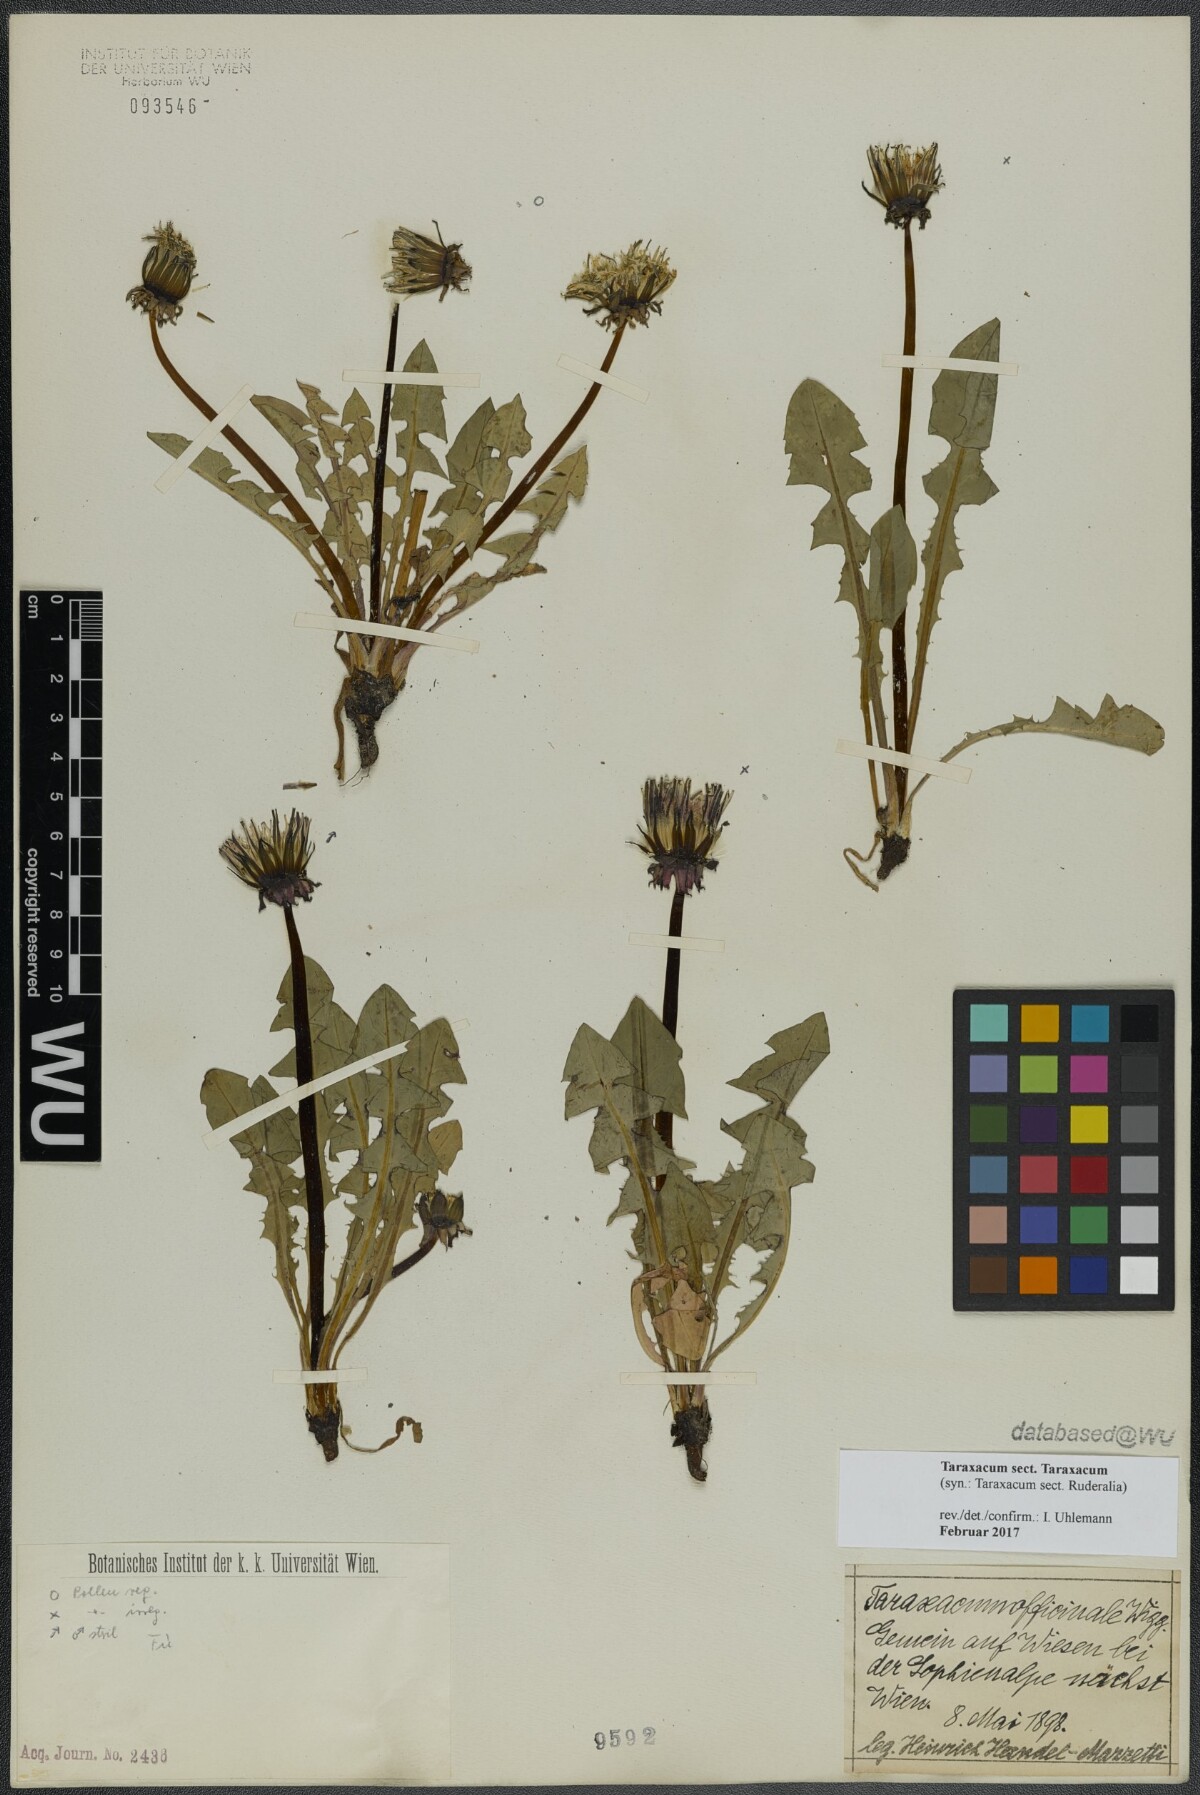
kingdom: Plantae
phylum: Tracheophyta
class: Magnoliopsida
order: Asterales
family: Asteraceae
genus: Taraxacum
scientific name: Taraxacum
